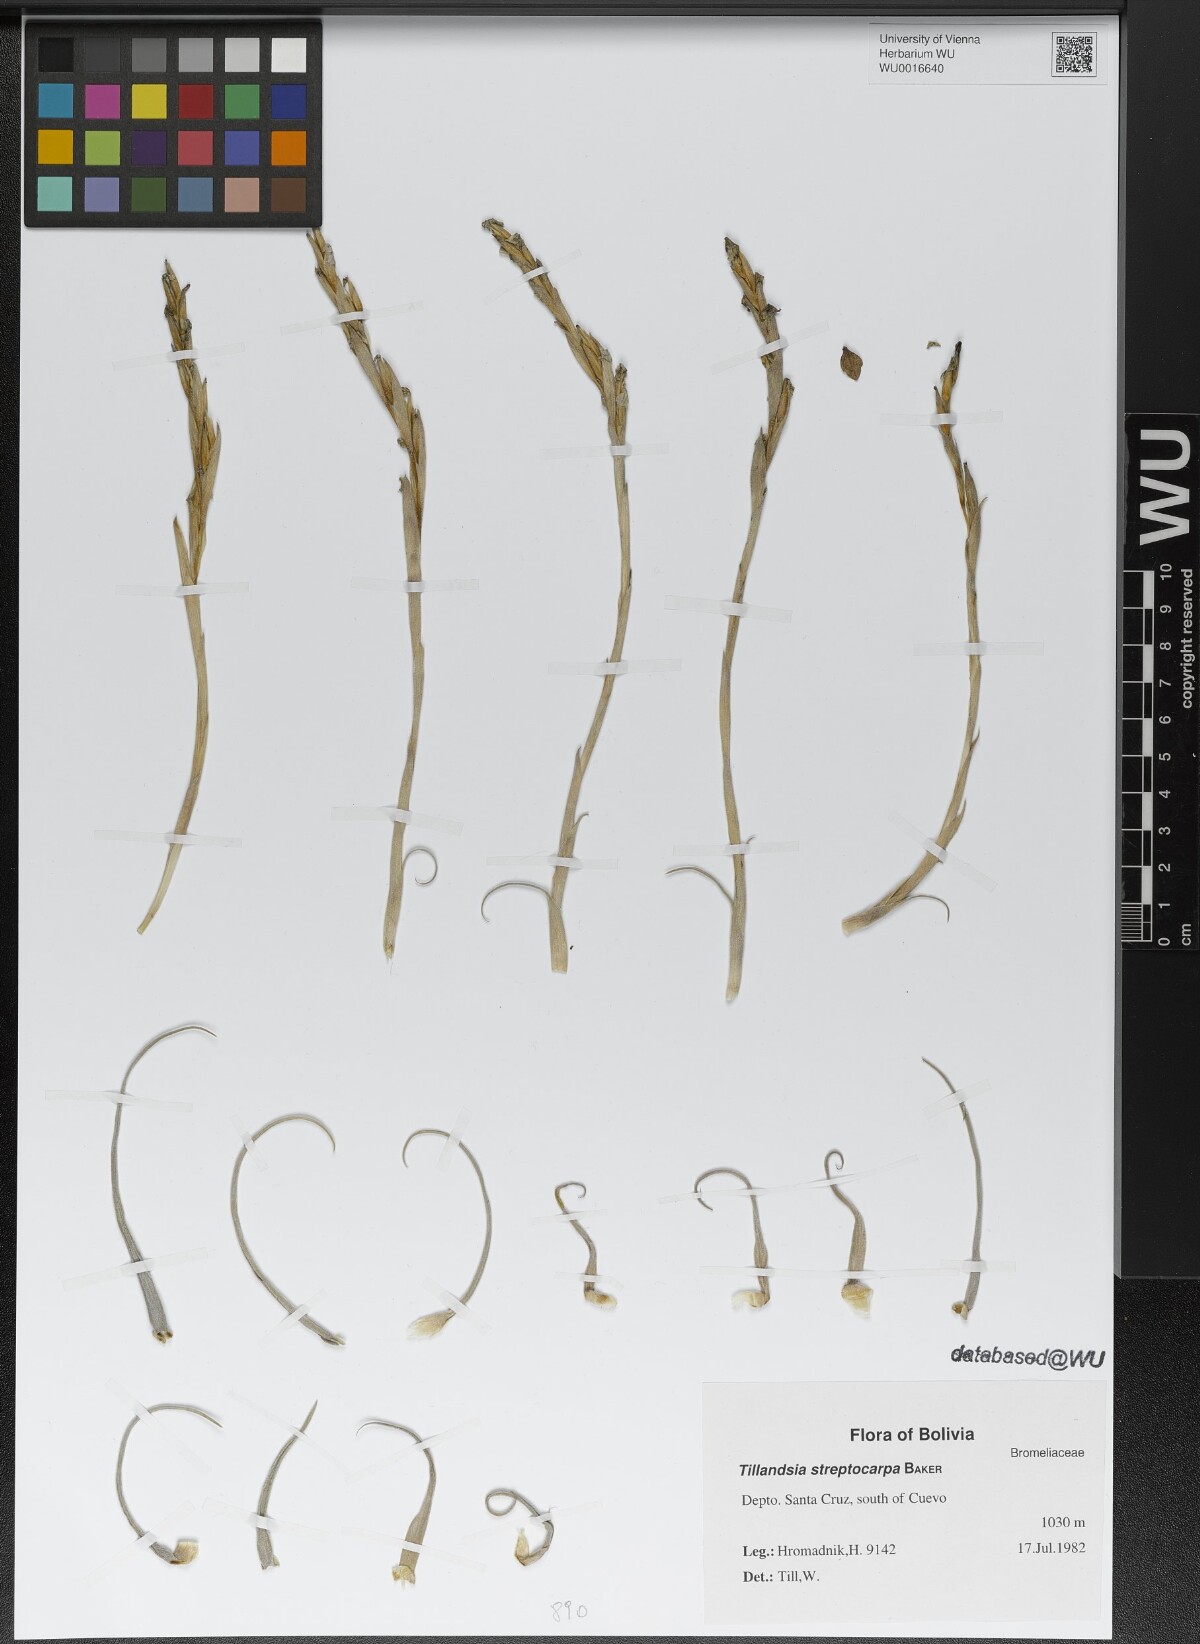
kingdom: Plantae
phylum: Tracheophyta
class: Liliopsida
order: Poales
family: Bromeliaceae
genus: Tillandsia
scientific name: Tillandsia streptocarpa
